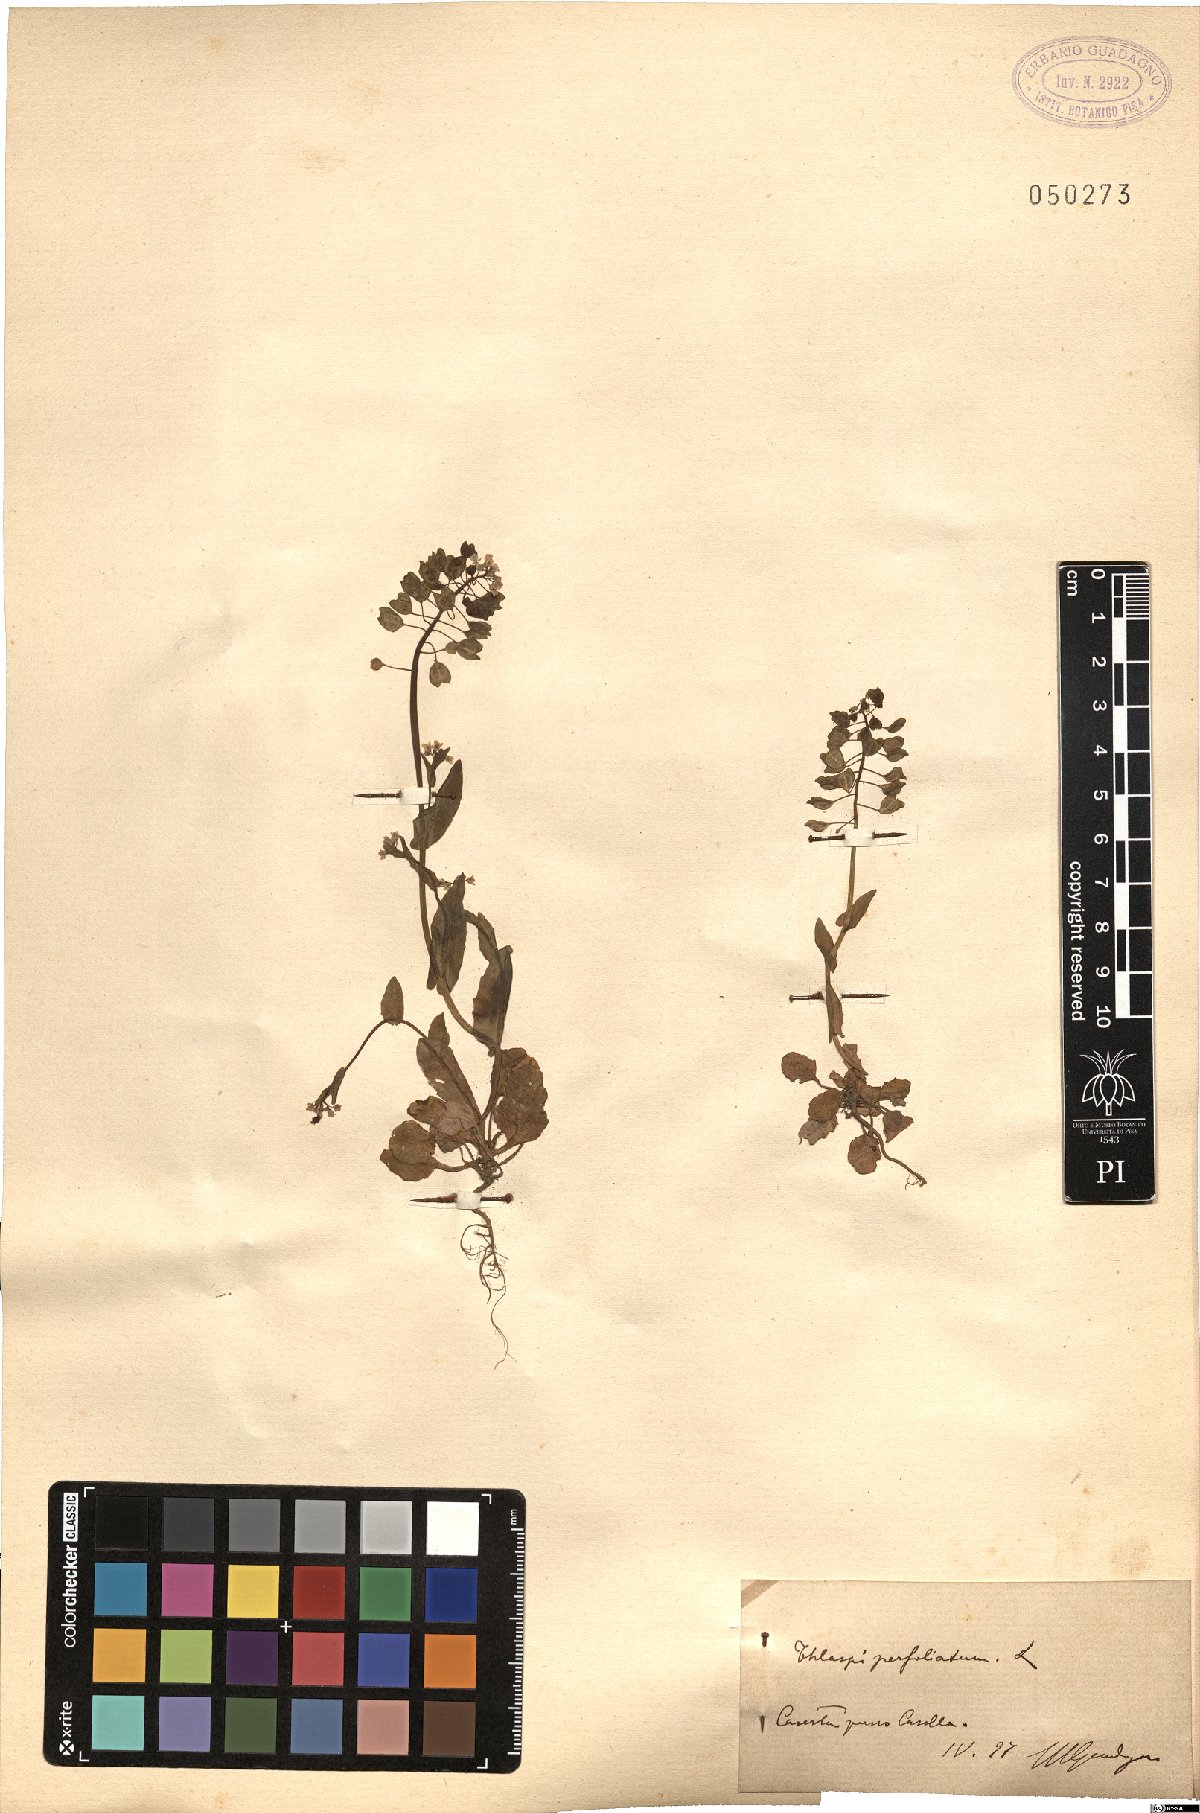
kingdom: Plantae
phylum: Tracheophyta
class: Magnoliopsida
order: Brassicales
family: Brassicaceae
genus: Noccaea
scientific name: Noccaea perfoliata
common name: Perfoliate pennycress
